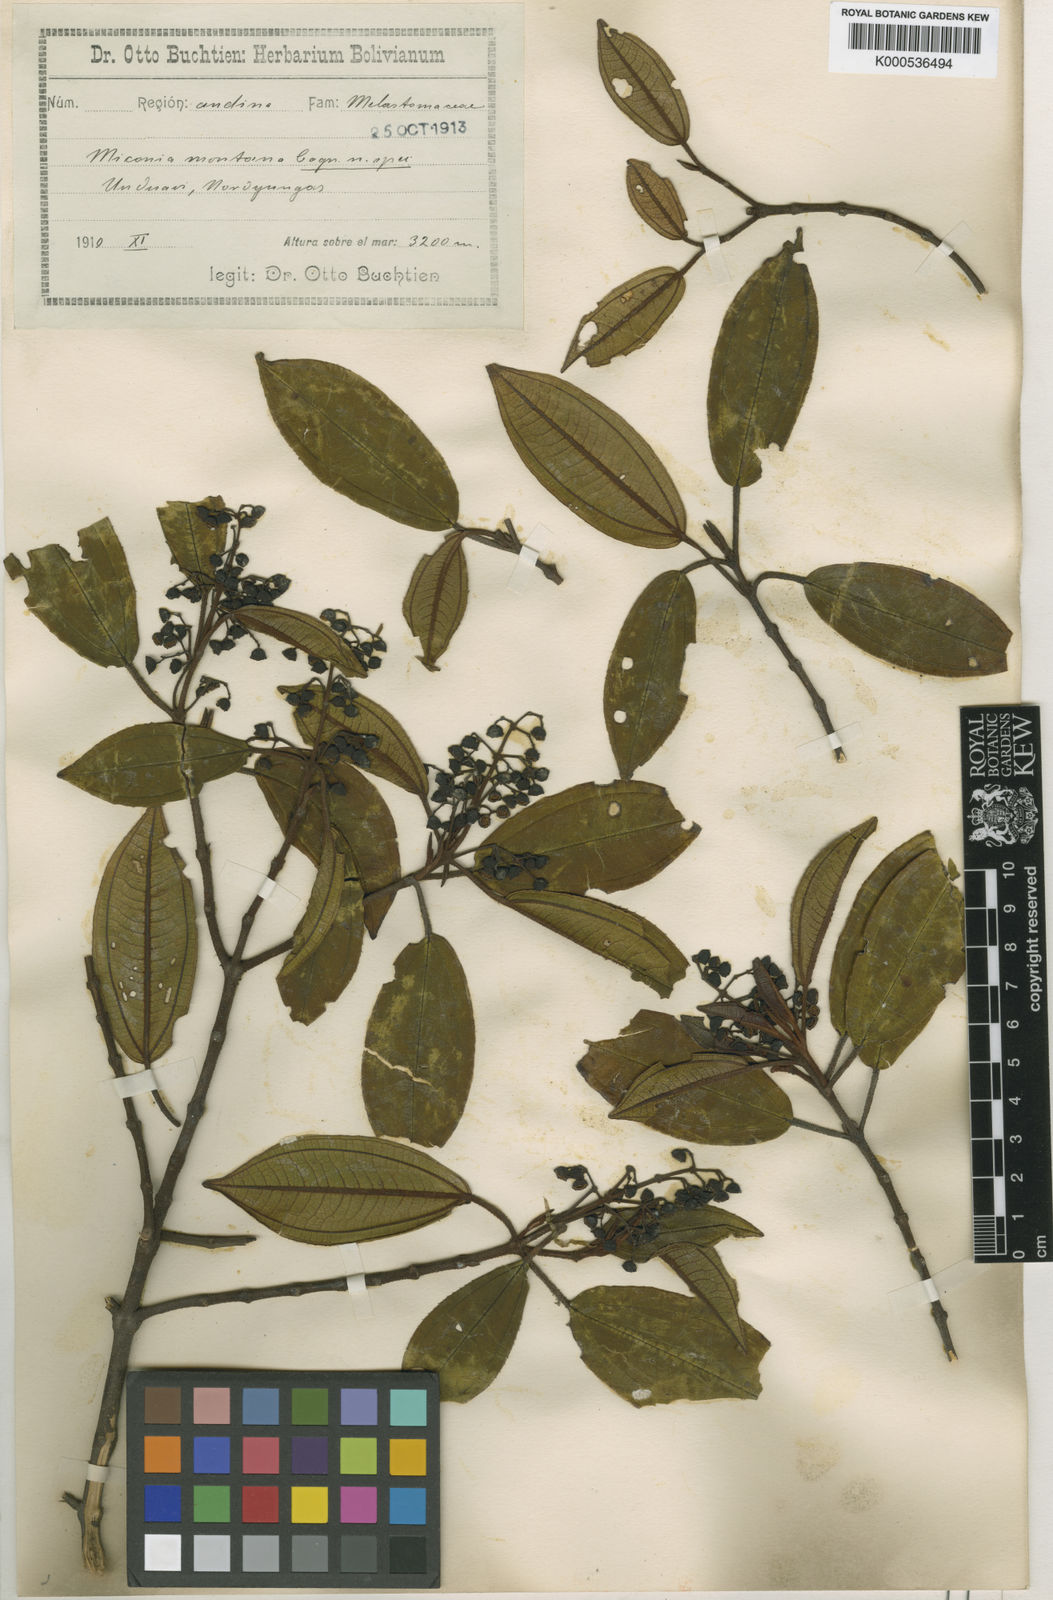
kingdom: Plantae
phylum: Tracheophyta
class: Magnoliopsida
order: Myrtales
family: Melastomataceae
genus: Miconia
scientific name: Miconia
